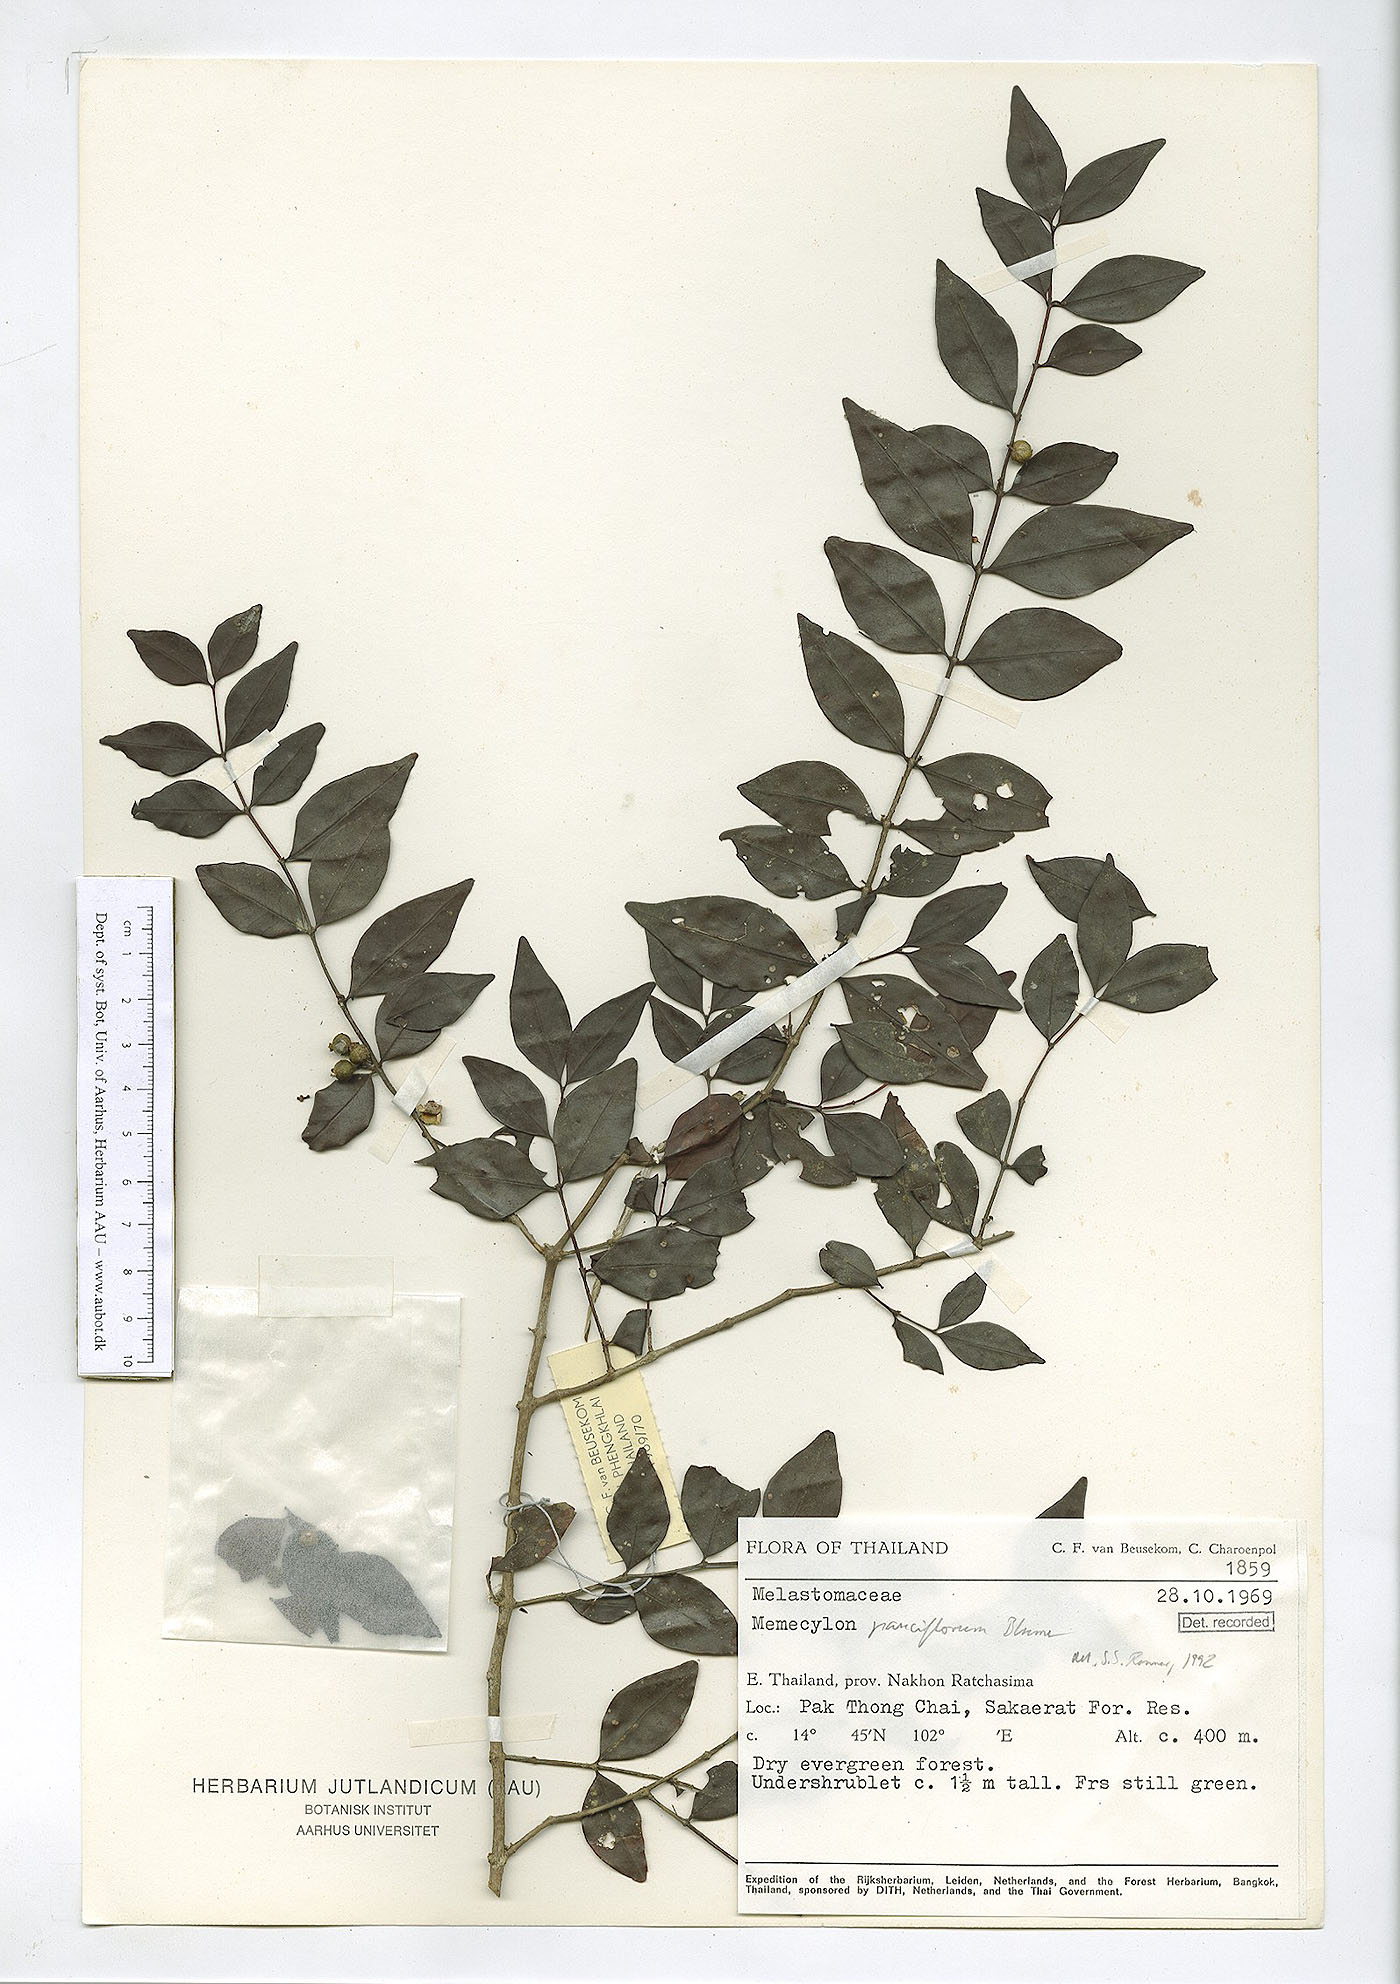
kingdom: Plantae
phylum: Tracheophyta
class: Magnoliopsida
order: Myrtales
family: Melastomataceae
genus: Memecylon
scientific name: Memecylon pauciflorum
